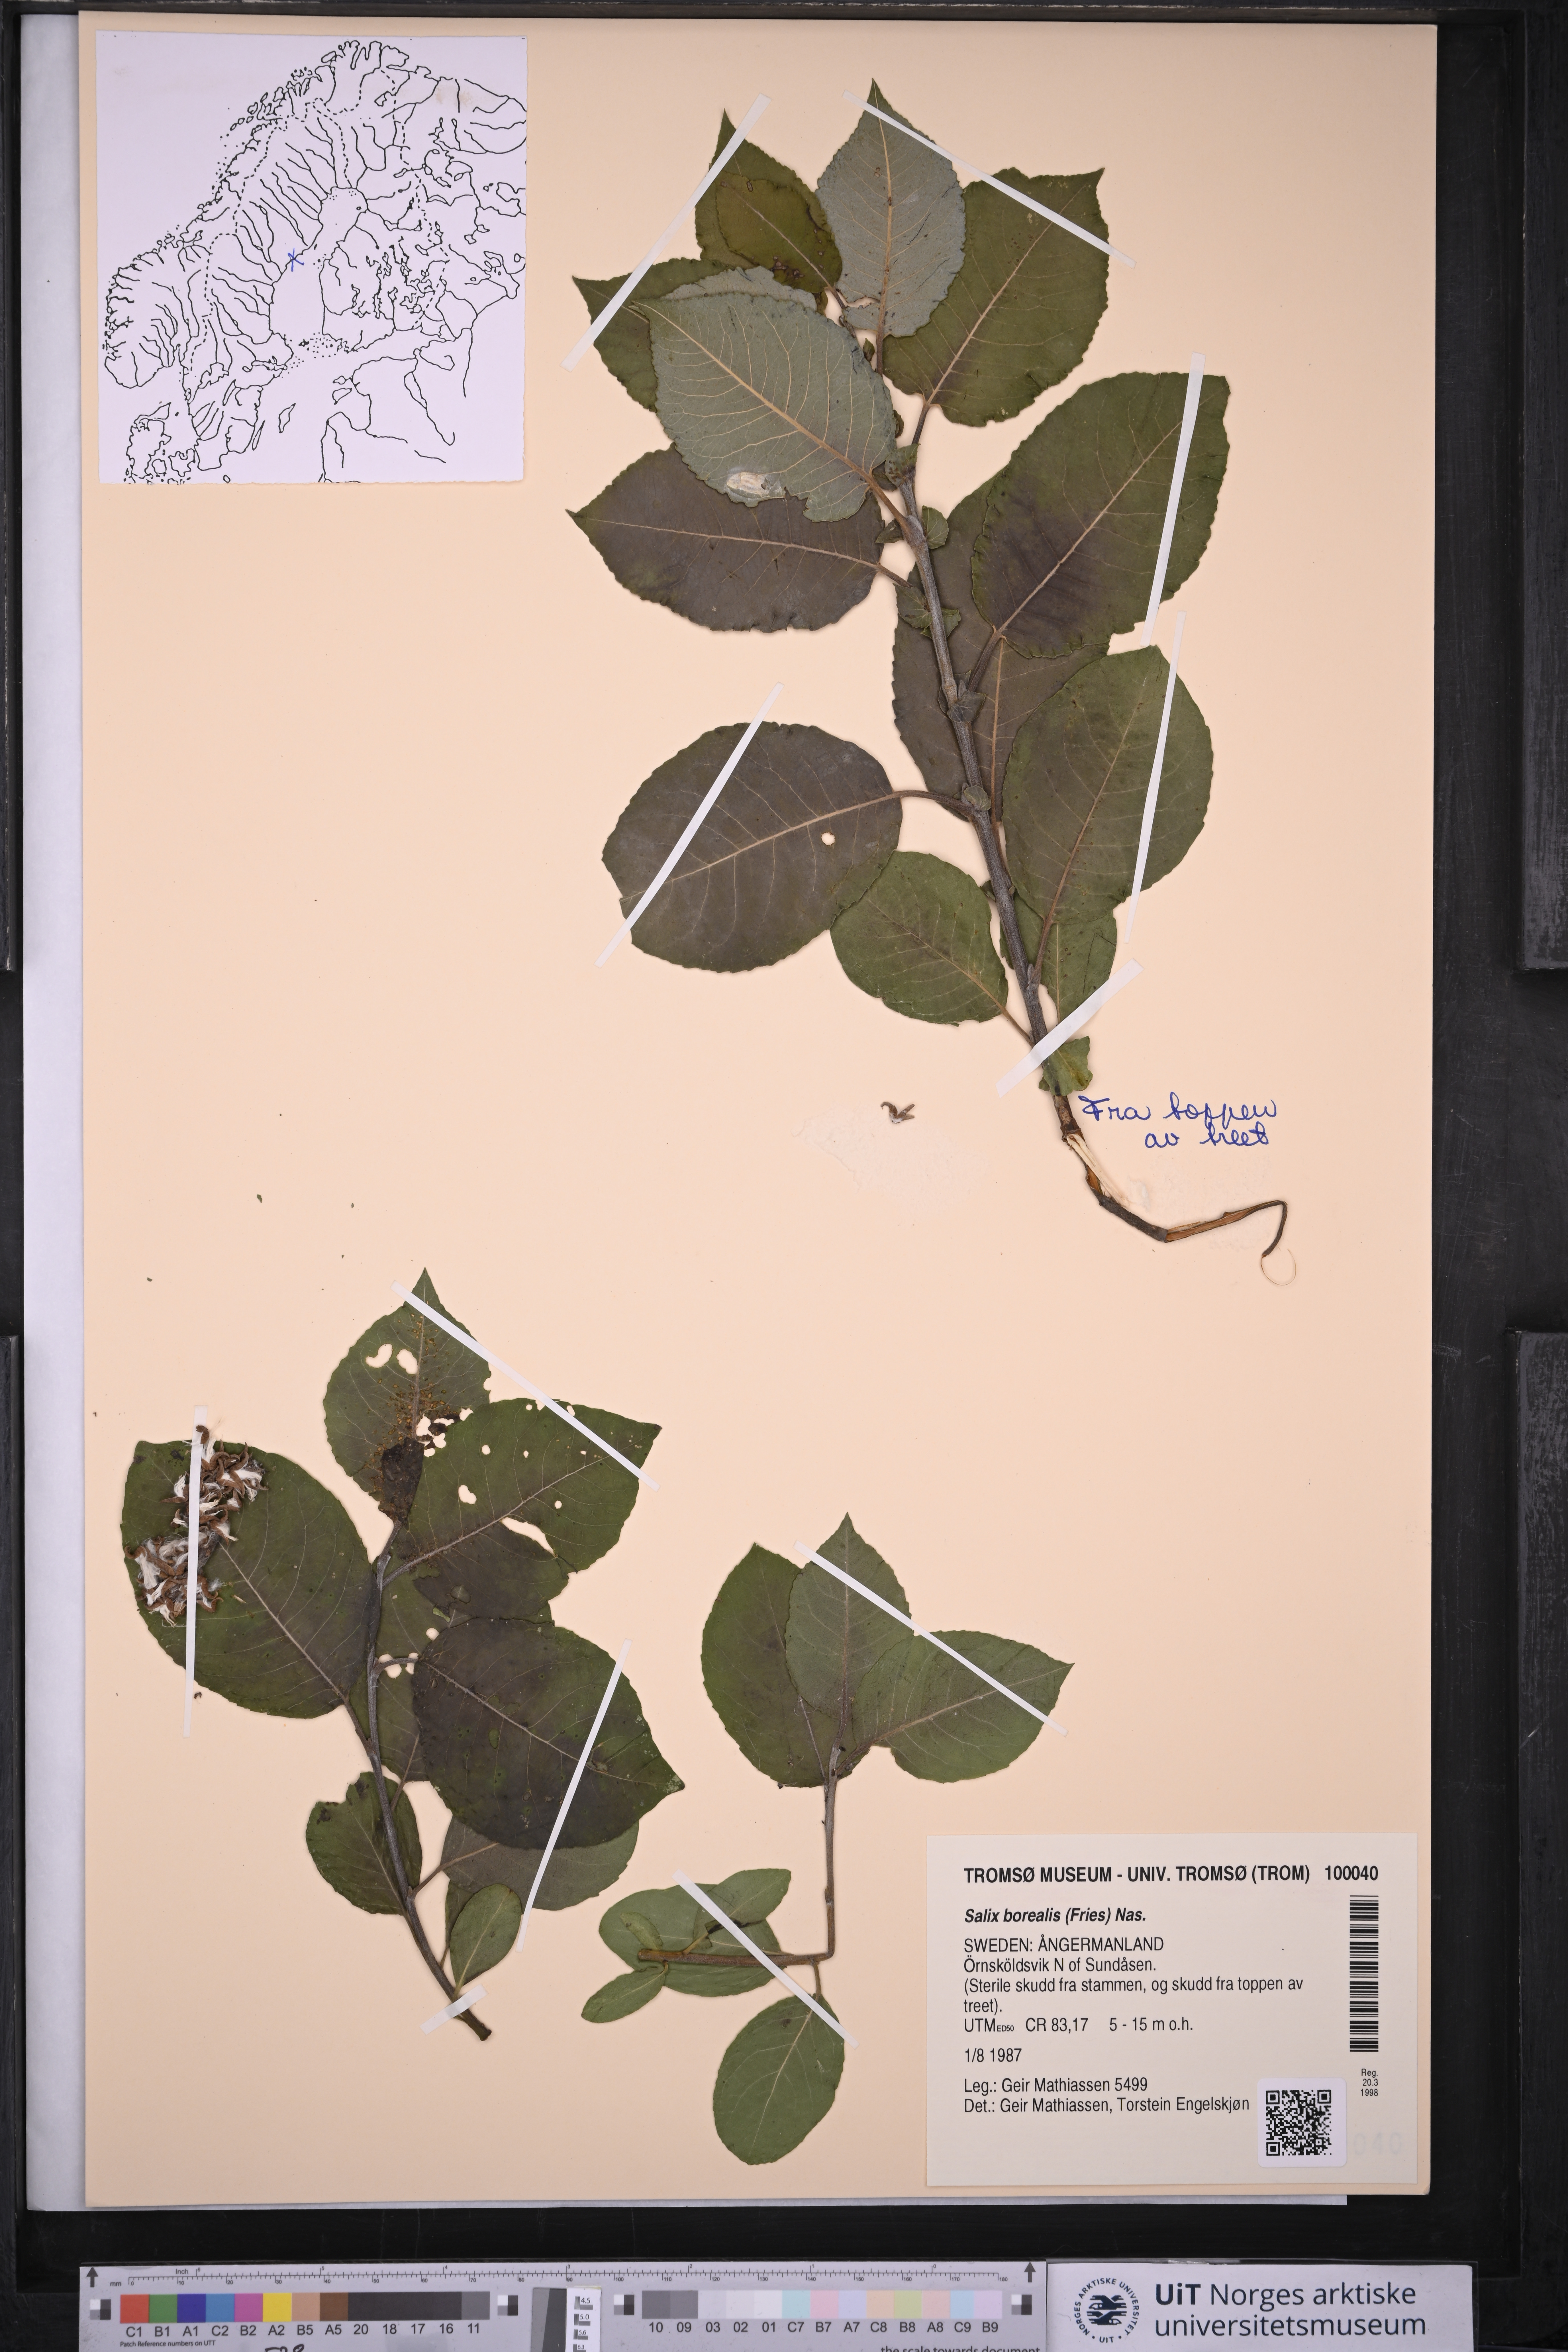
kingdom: Plantae
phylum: Tracheophyta
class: Magnoliopsida
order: Malpighiales
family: Salicaceae
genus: Salix
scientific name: Salix myrsinifolia
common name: Dark-leaved willow
